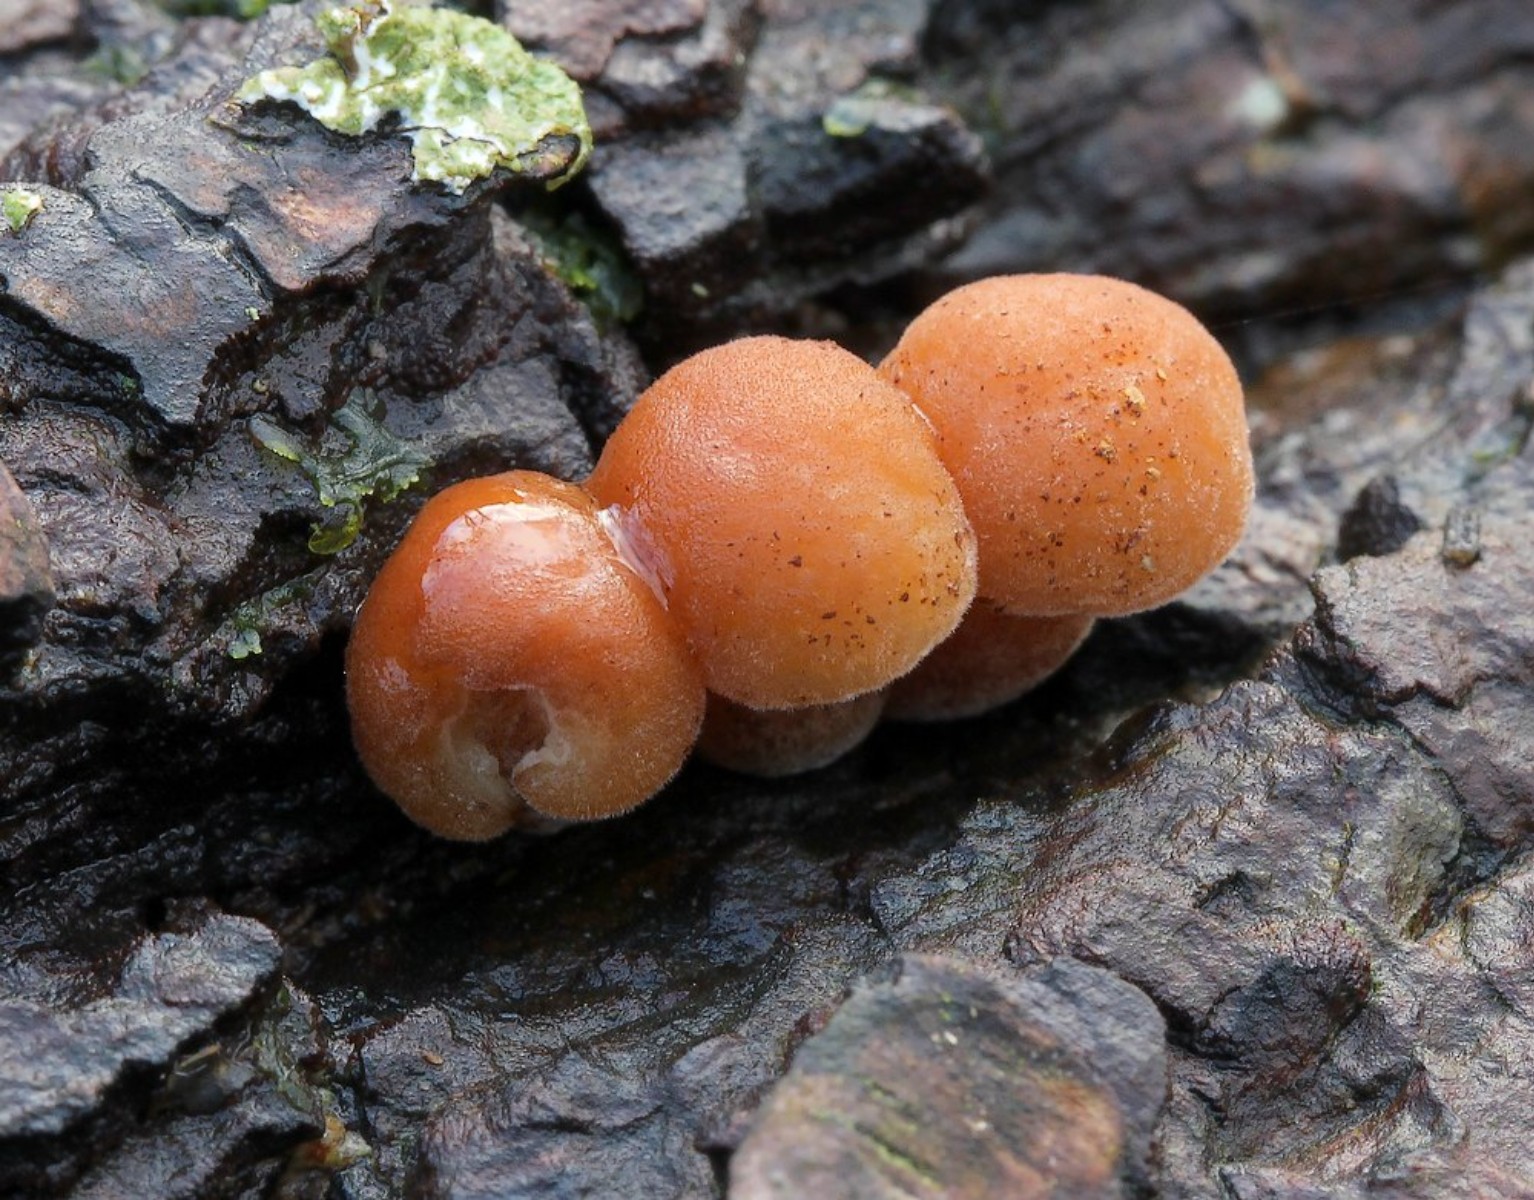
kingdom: Fungi
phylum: Basidiomycota
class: Agaricomycetes
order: Agaricales
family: Physalacriaceae
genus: Flammulina
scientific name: Flammulina velutipes
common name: gul fløjlsfod
